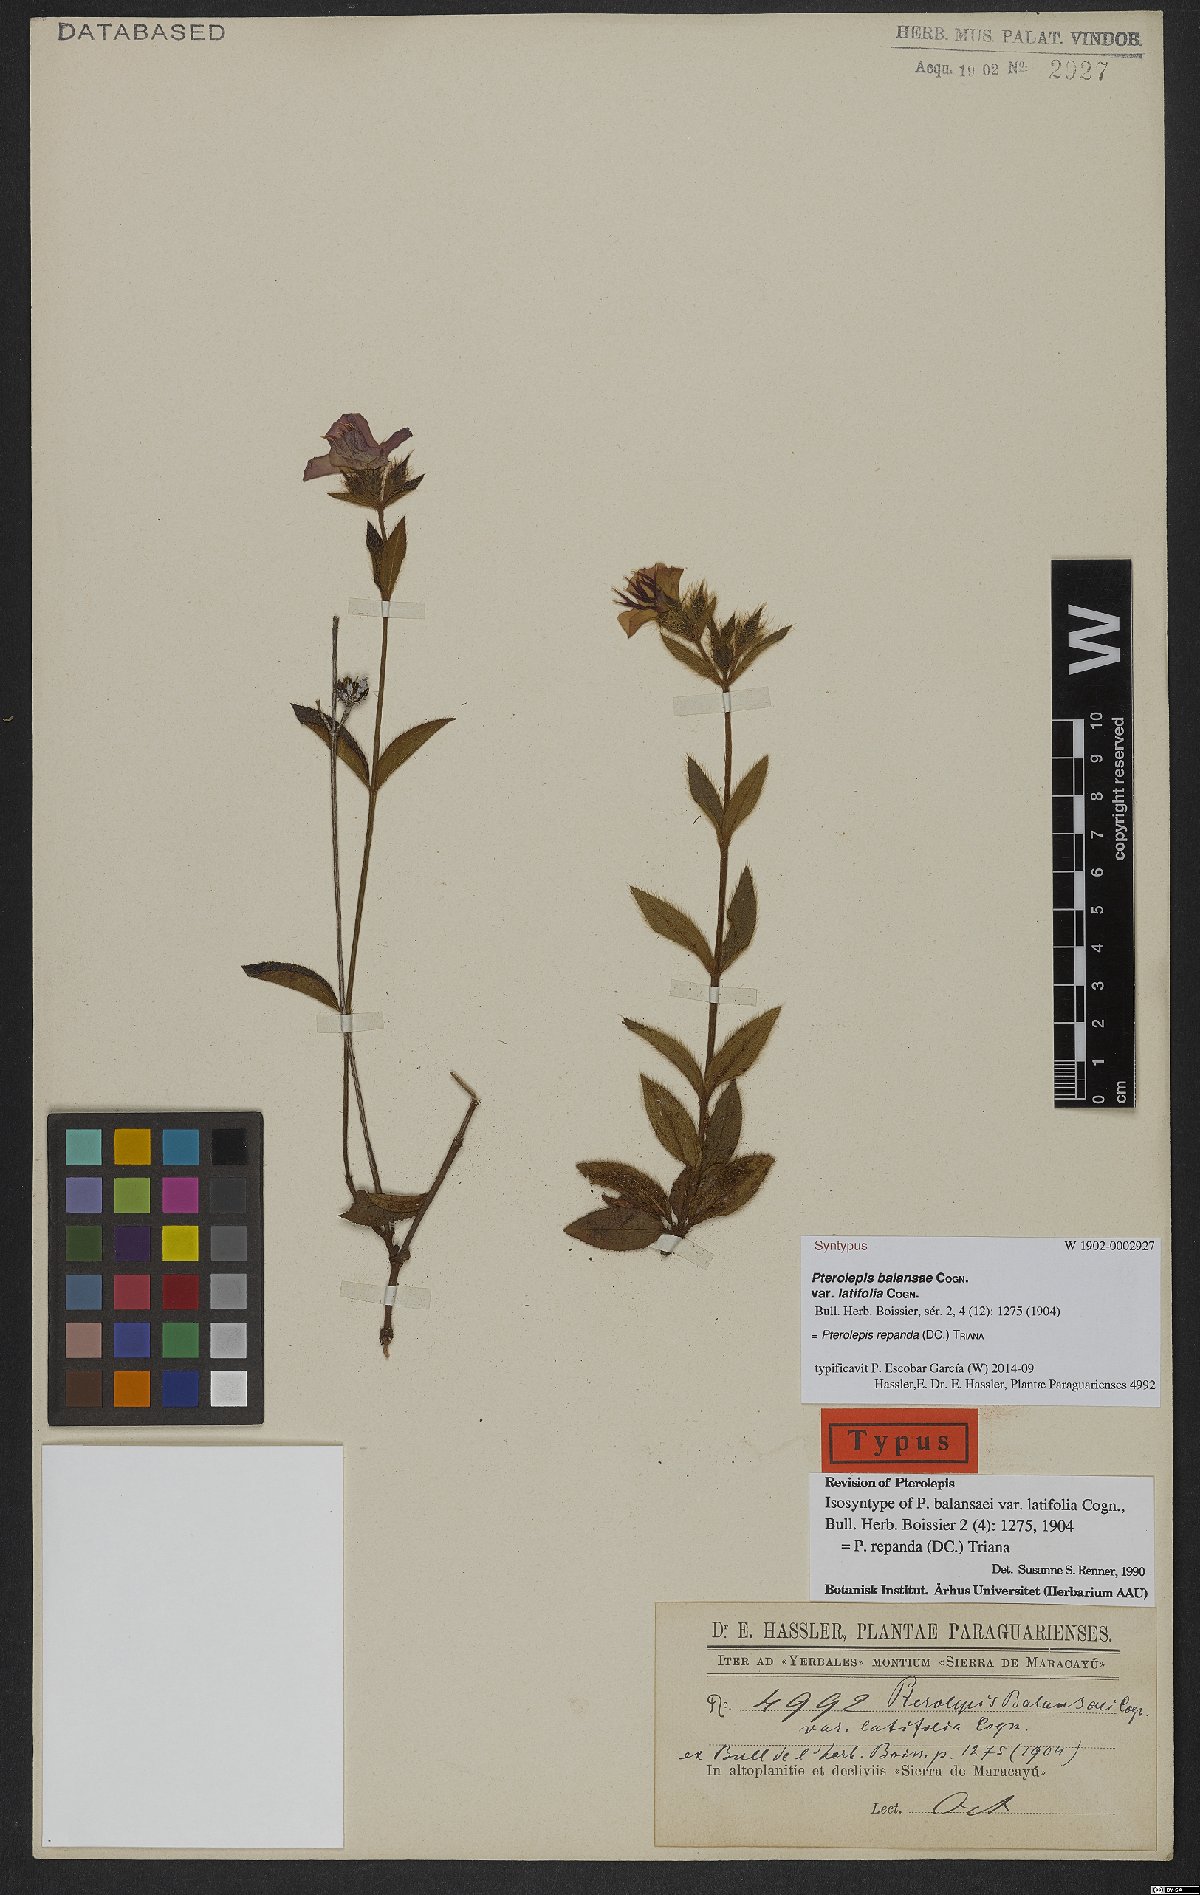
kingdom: Plantae
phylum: Tracheophyta
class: Magnoliopsida
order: Myrtales
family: Melastomataceae
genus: Pterolepis
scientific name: Pterolepis repanda
